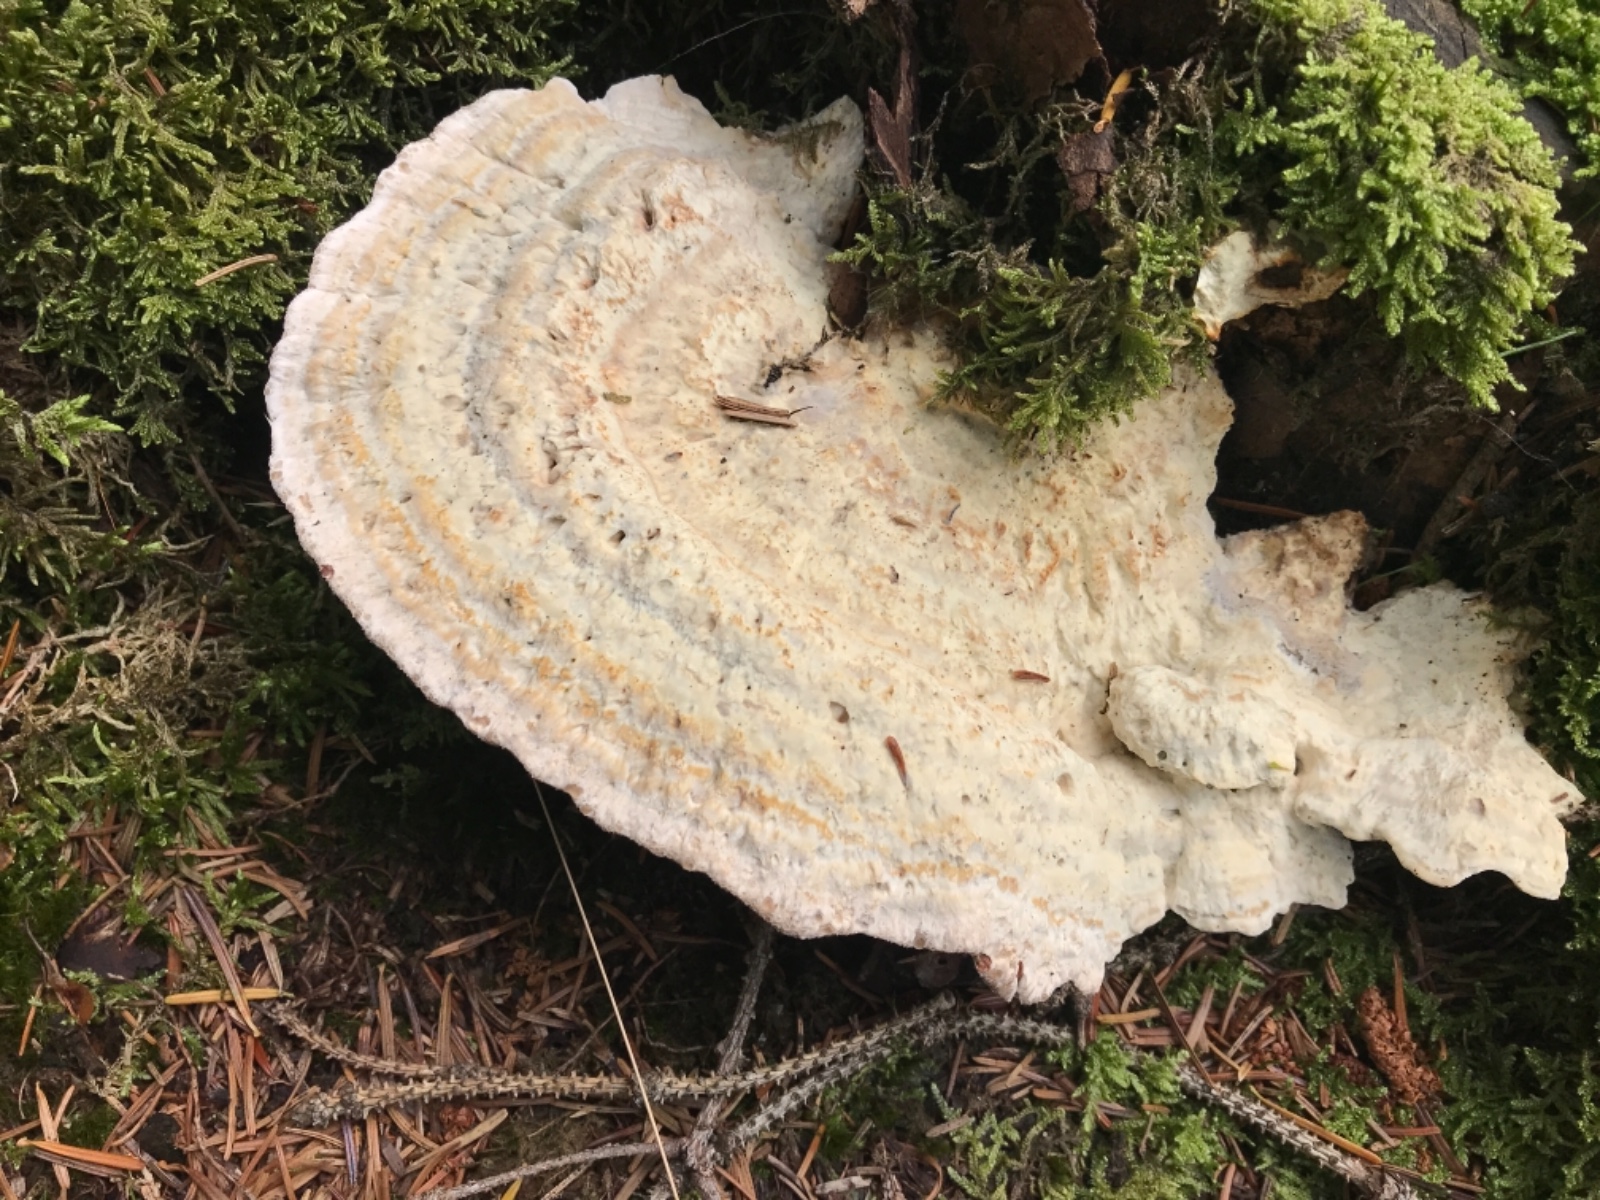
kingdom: Fungi
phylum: Basidiomycota
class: Agaricomycetes
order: Polyporales
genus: Calcipostia
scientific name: Calcipostia guttulata
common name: dråbe-kødporesvamp
